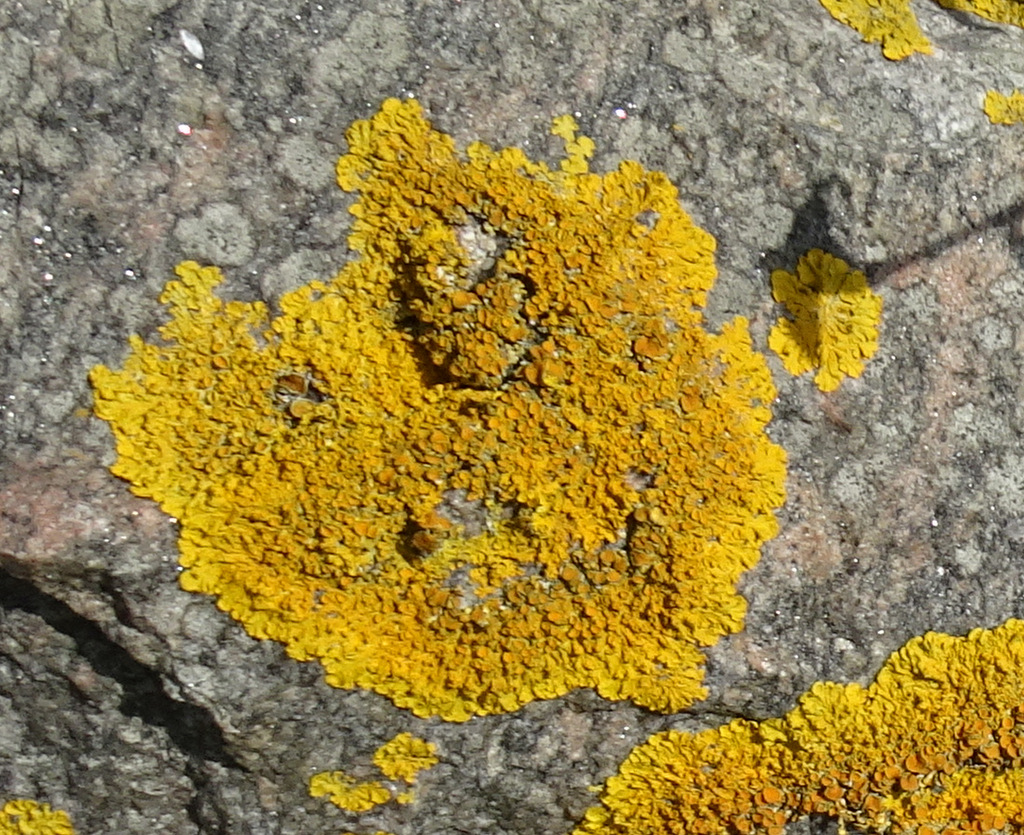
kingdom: Fungi
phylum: Ascomycota
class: Lecanoromycetes
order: Teloschistales
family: Teloschistaceae
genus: Xanthoria
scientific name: Xanthoria parietina
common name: almindelig væggelav
